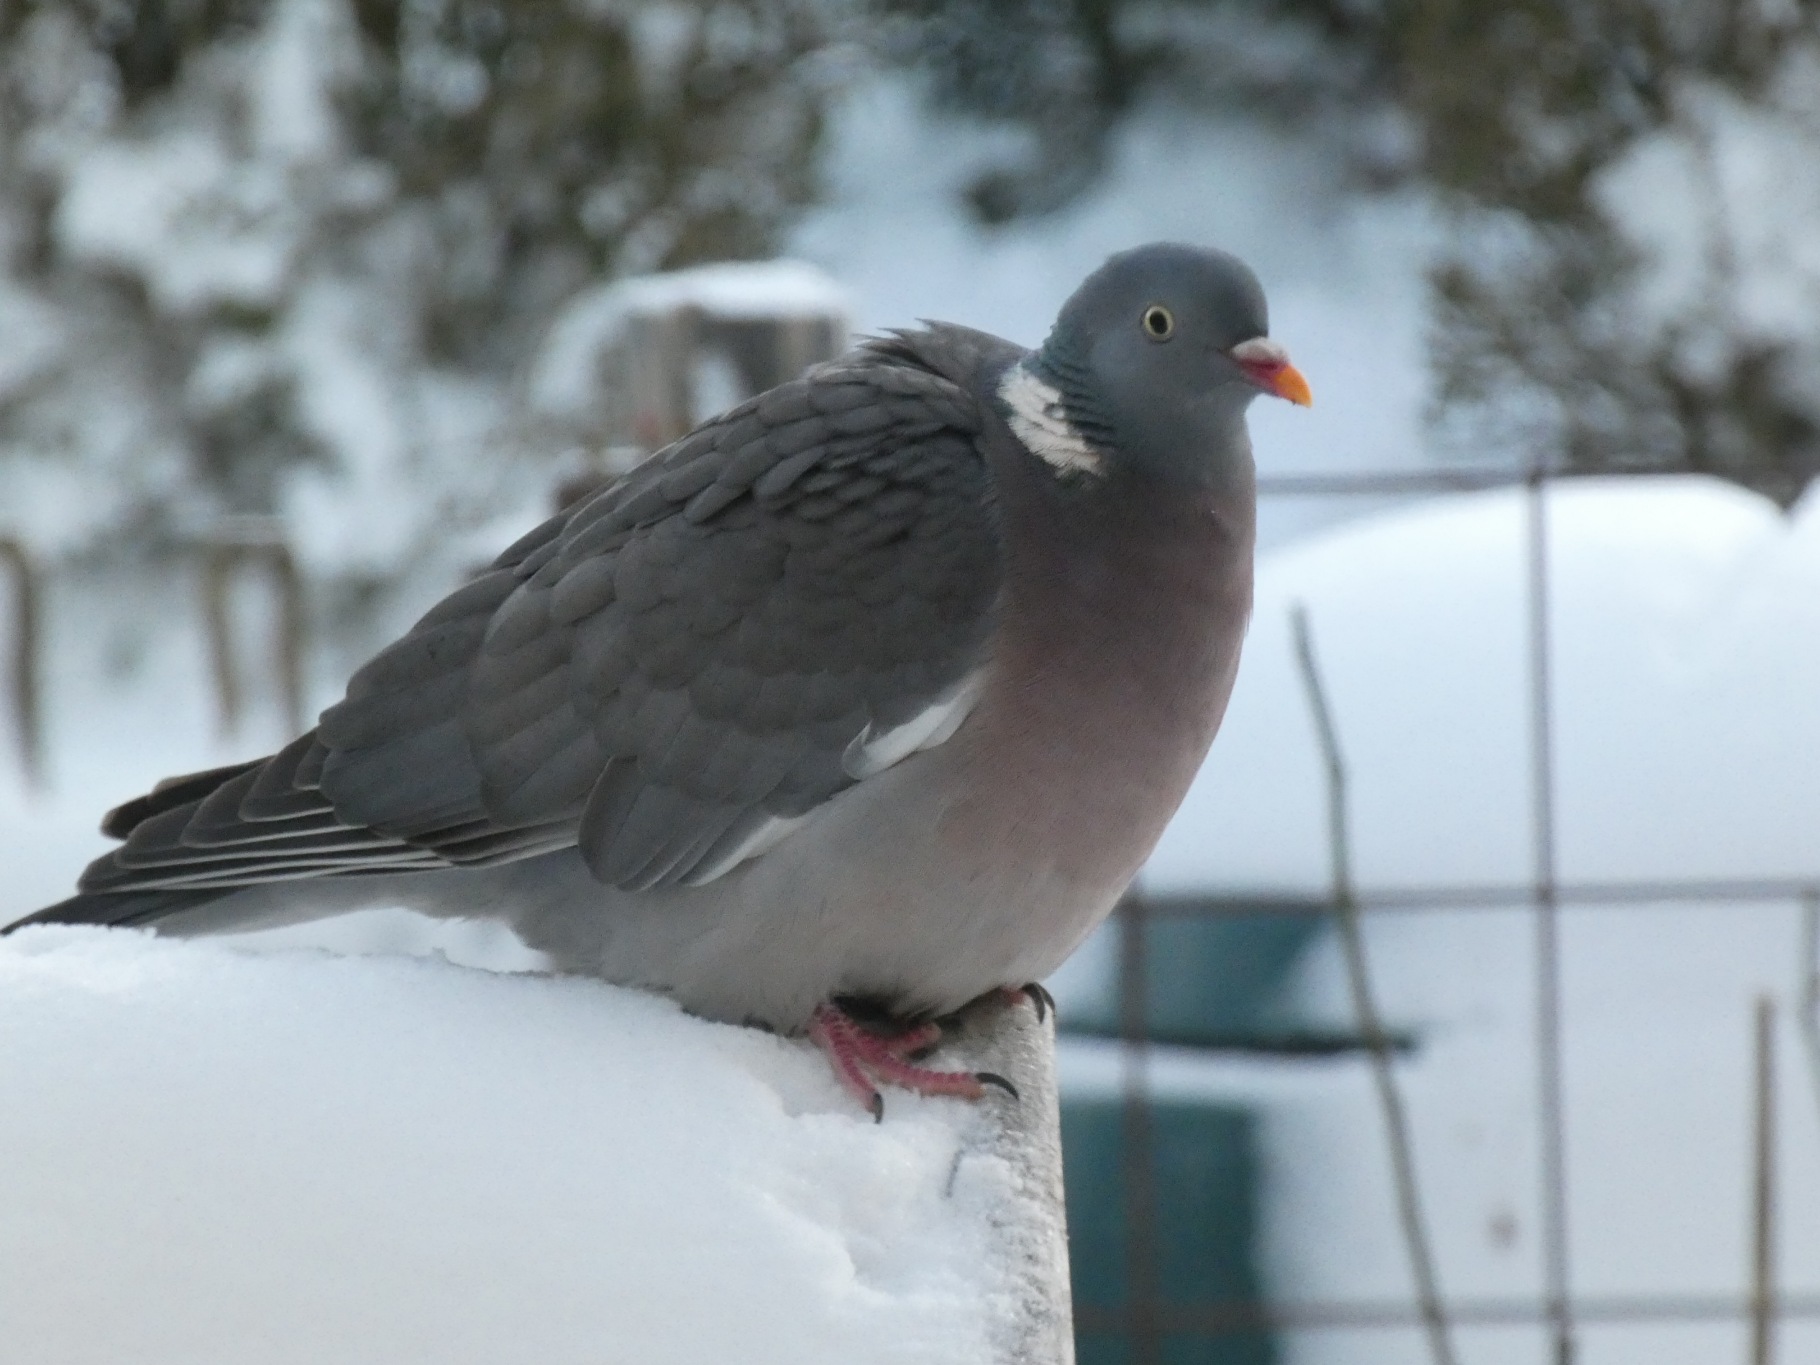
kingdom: Animalia
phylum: Chordata
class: Aves
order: Columbiformes
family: Columbidae
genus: Columba
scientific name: Columba palumbus
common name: Ringdue
